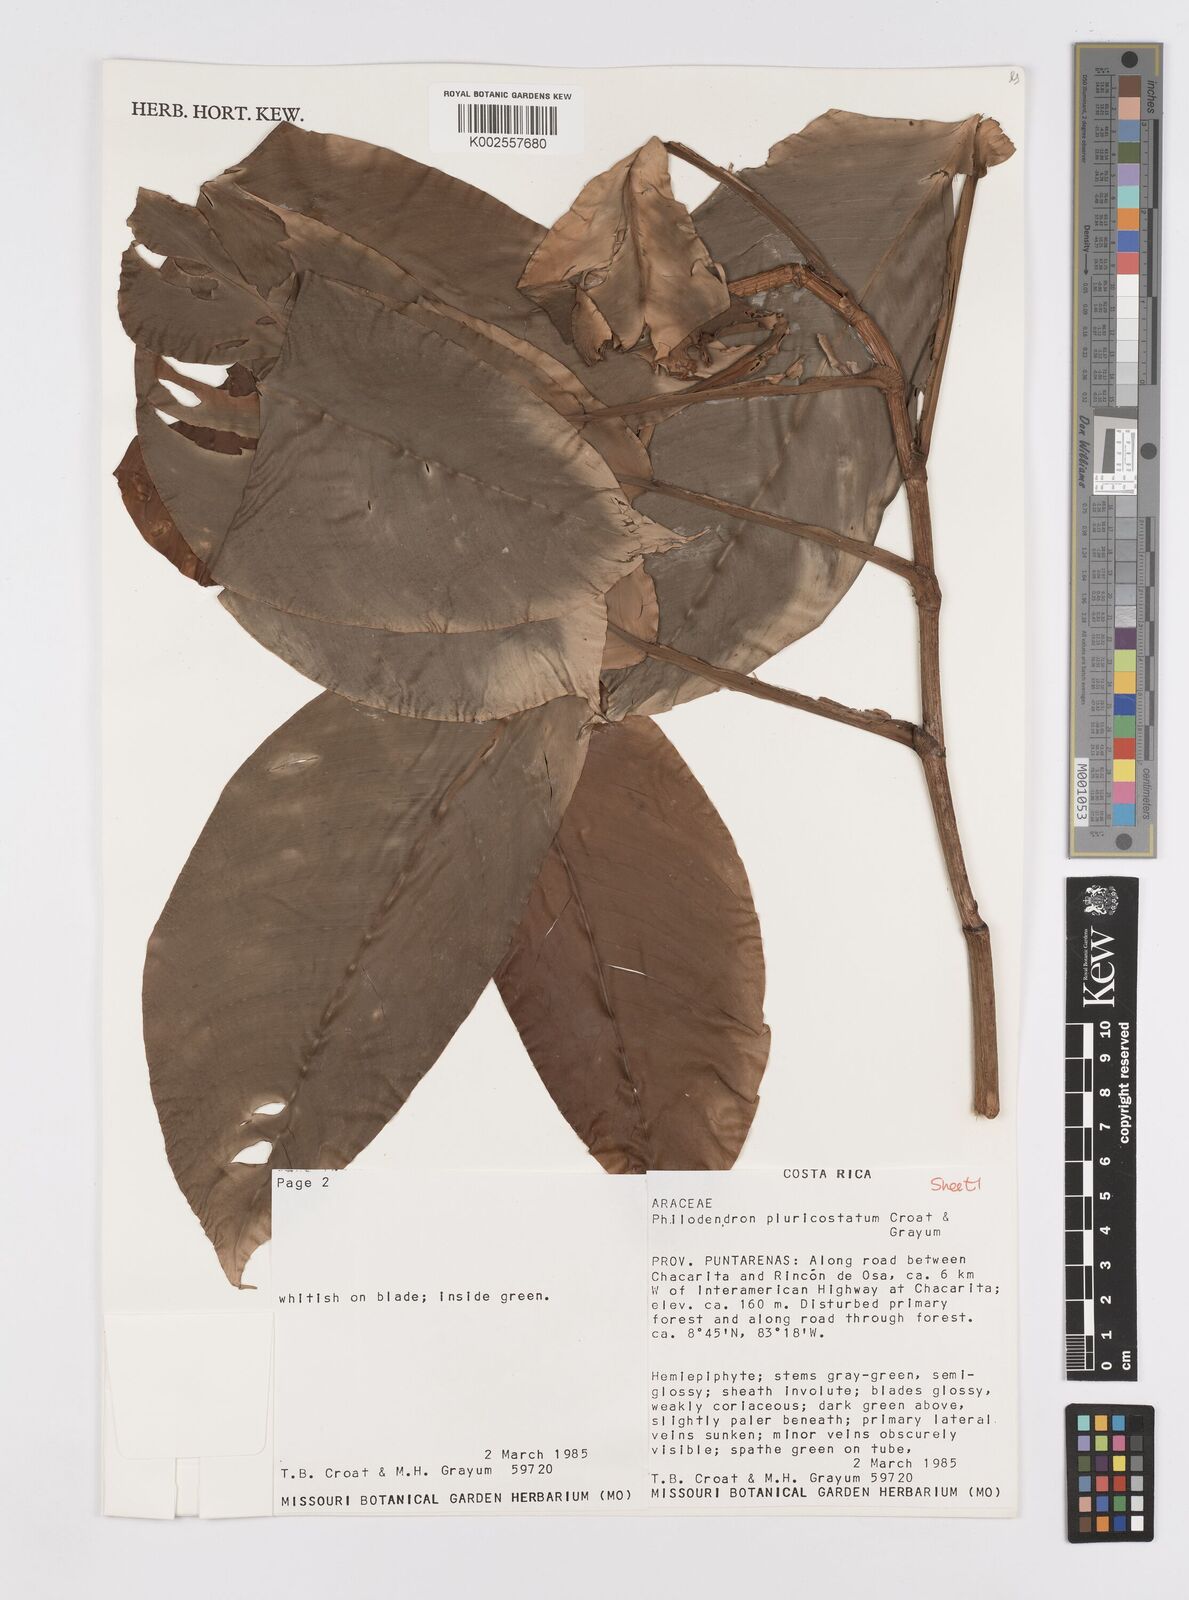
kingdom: Plantae
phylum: Tracheophyta
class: Liliopsida
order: Alismatales
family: Araceae
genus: Philodendron
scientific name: Philodendron
